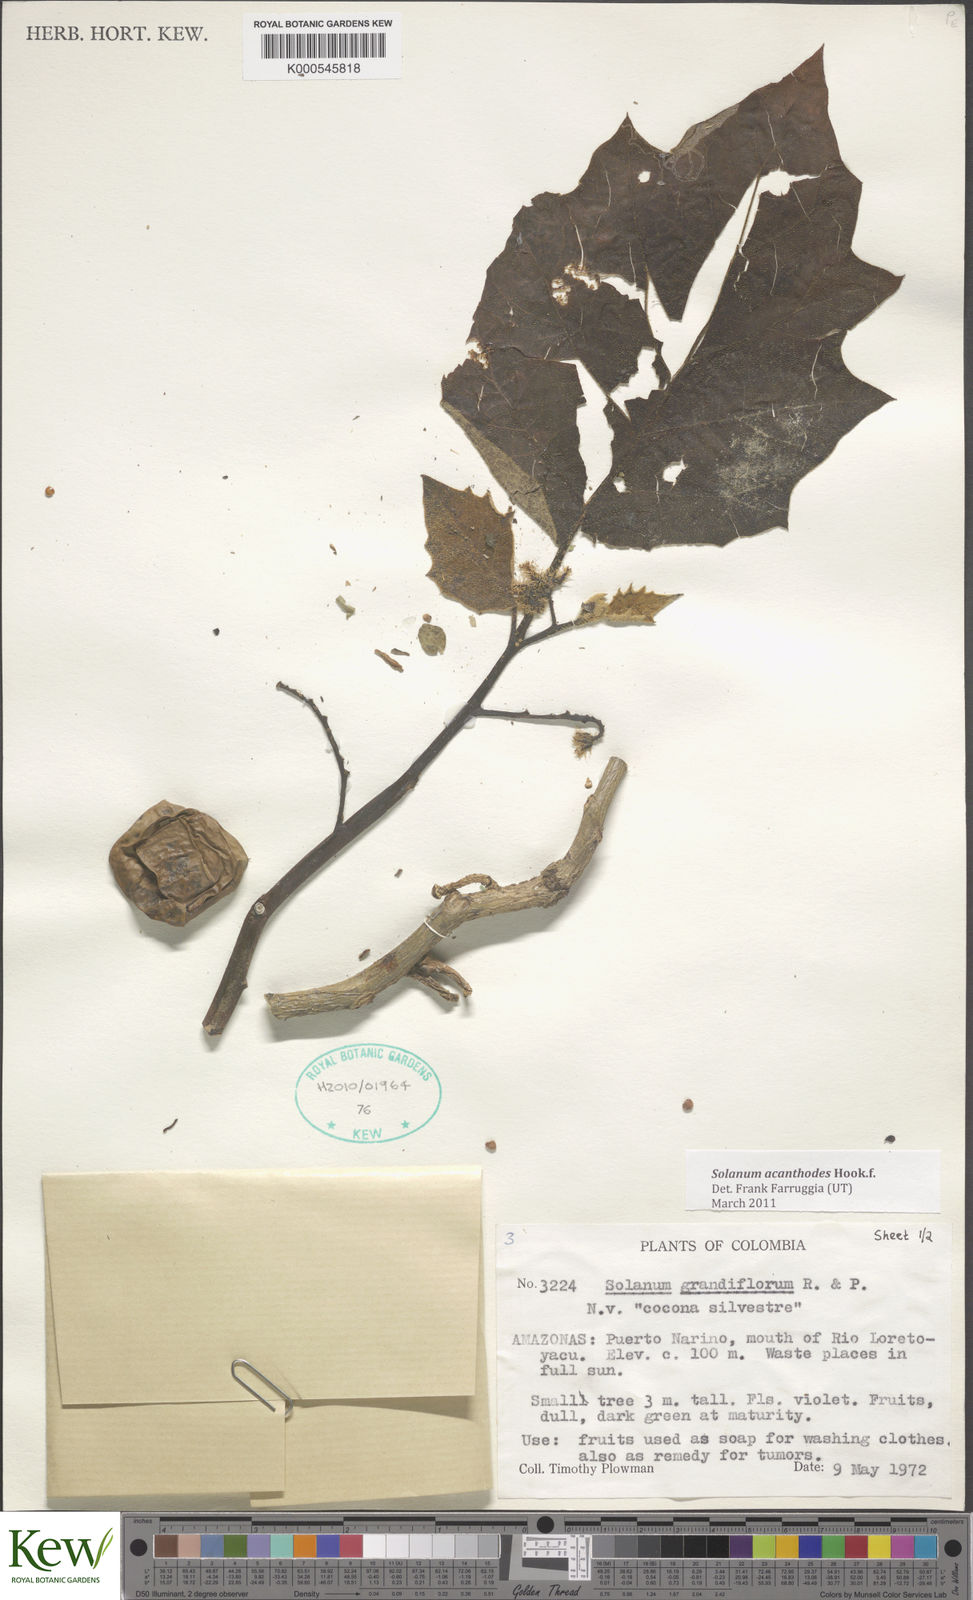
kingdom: Plantae
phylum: Tracheophyta
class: Magnoliopsida
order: Solanales
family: Solanaceae
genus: Solanum
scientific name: Solanum vanheurckii
